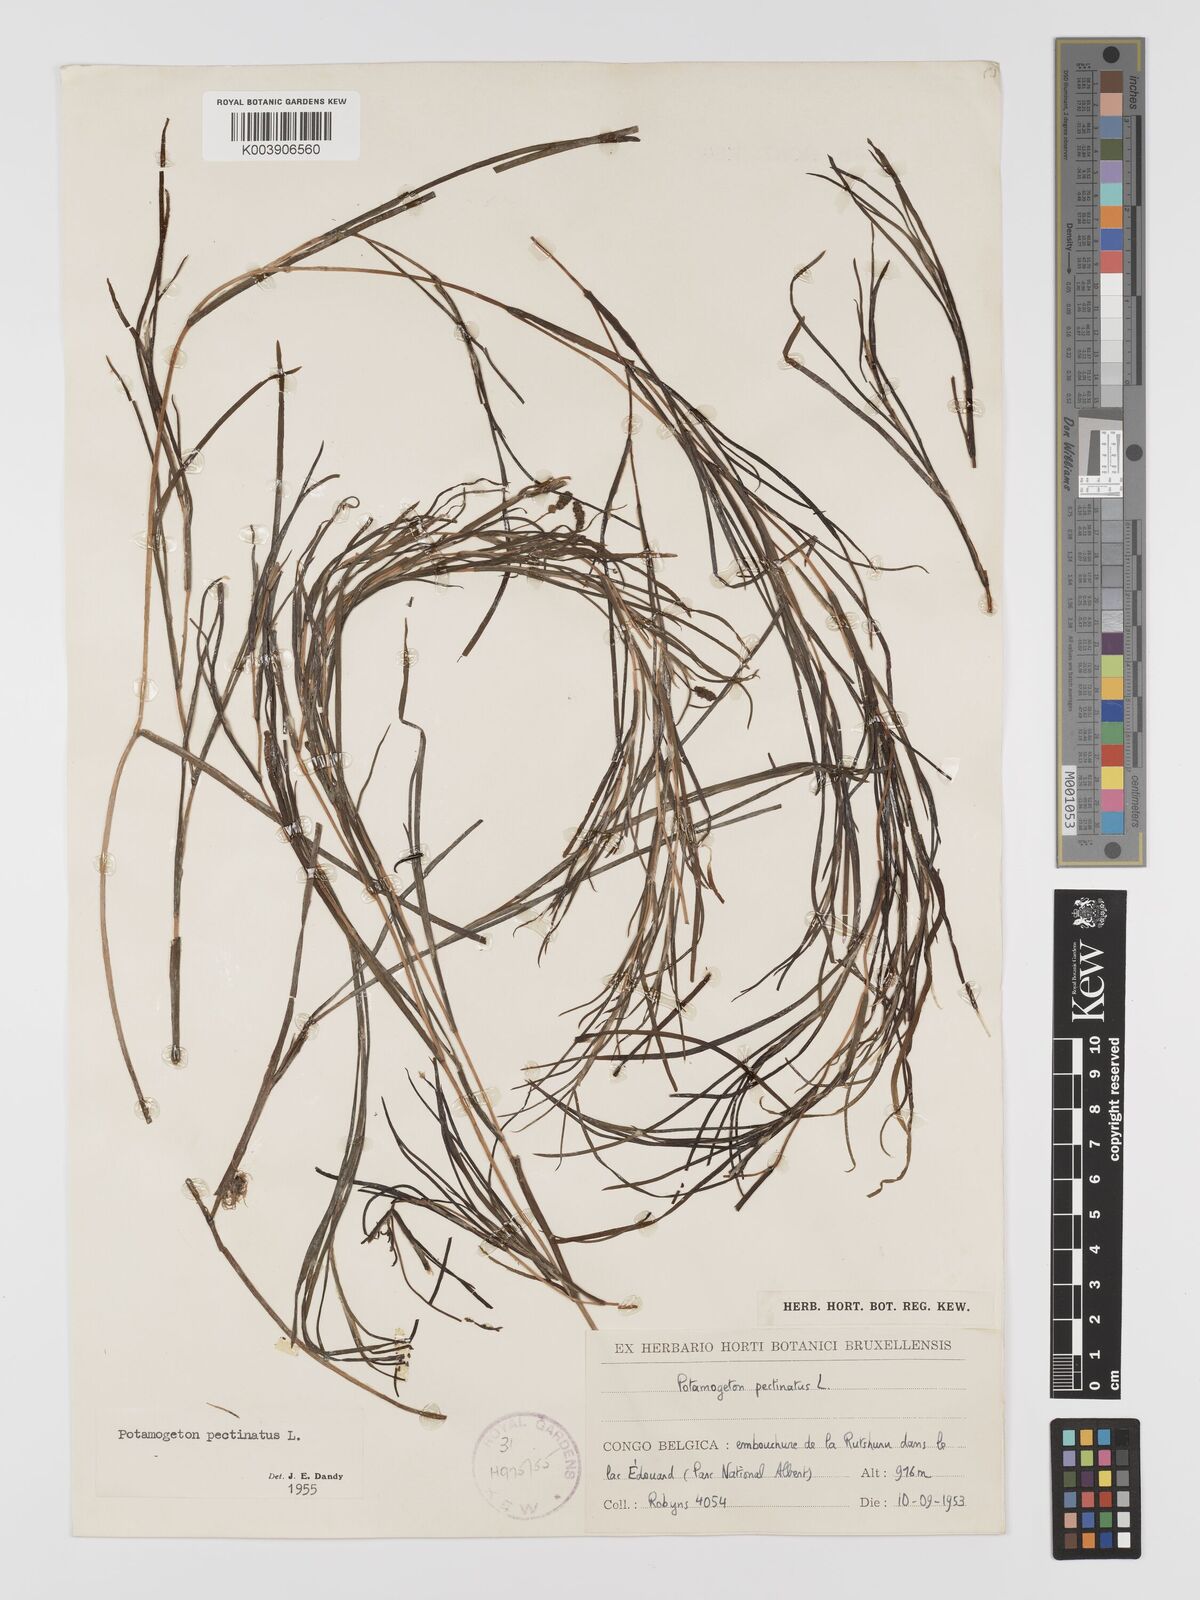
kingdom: Plantae
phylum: Tracheophyta
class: Liliopsida
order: Alismatales
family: Potamogetonaceae
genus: Stuckenia
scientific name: Stuckenia pectinata
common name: Sago pondweed
